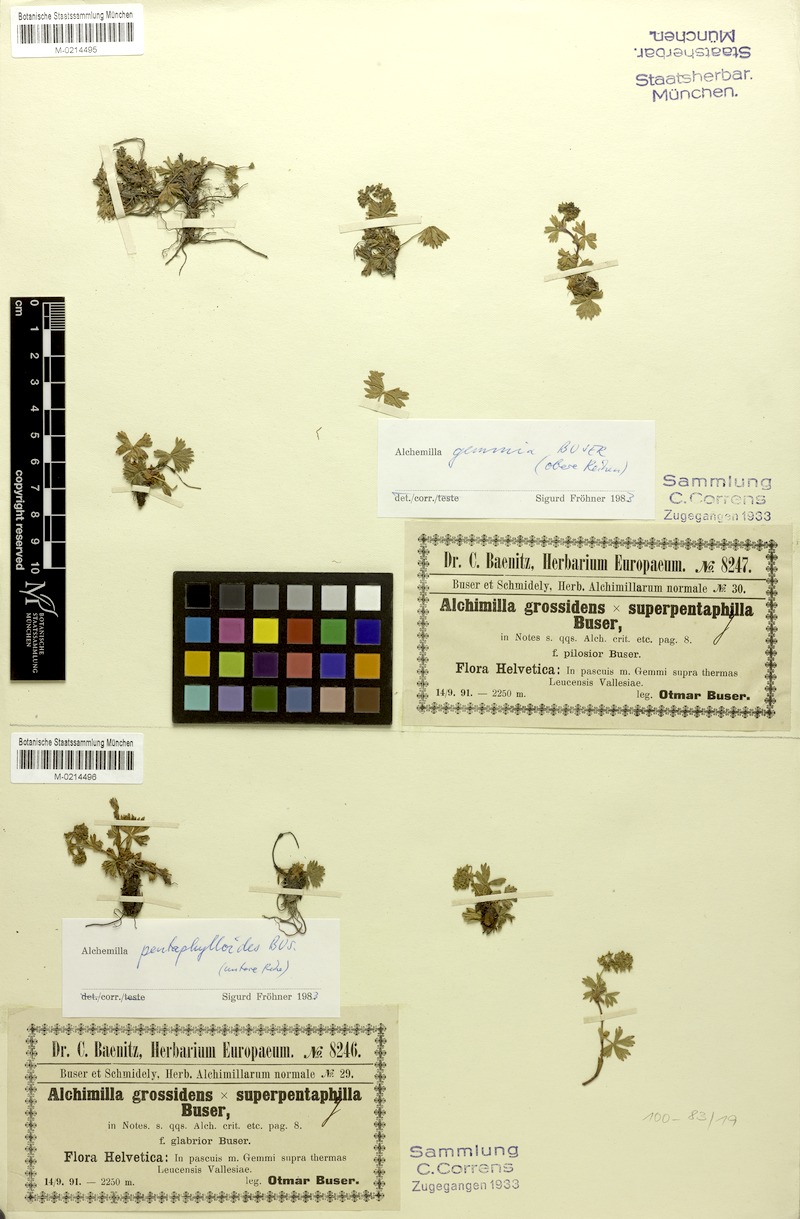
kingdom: Plantae
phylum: Tracheophyta
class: Magnoliopsida
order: Rosales
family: Rosaceae
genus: Alchemilla
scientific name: Alchemilla gemmia
